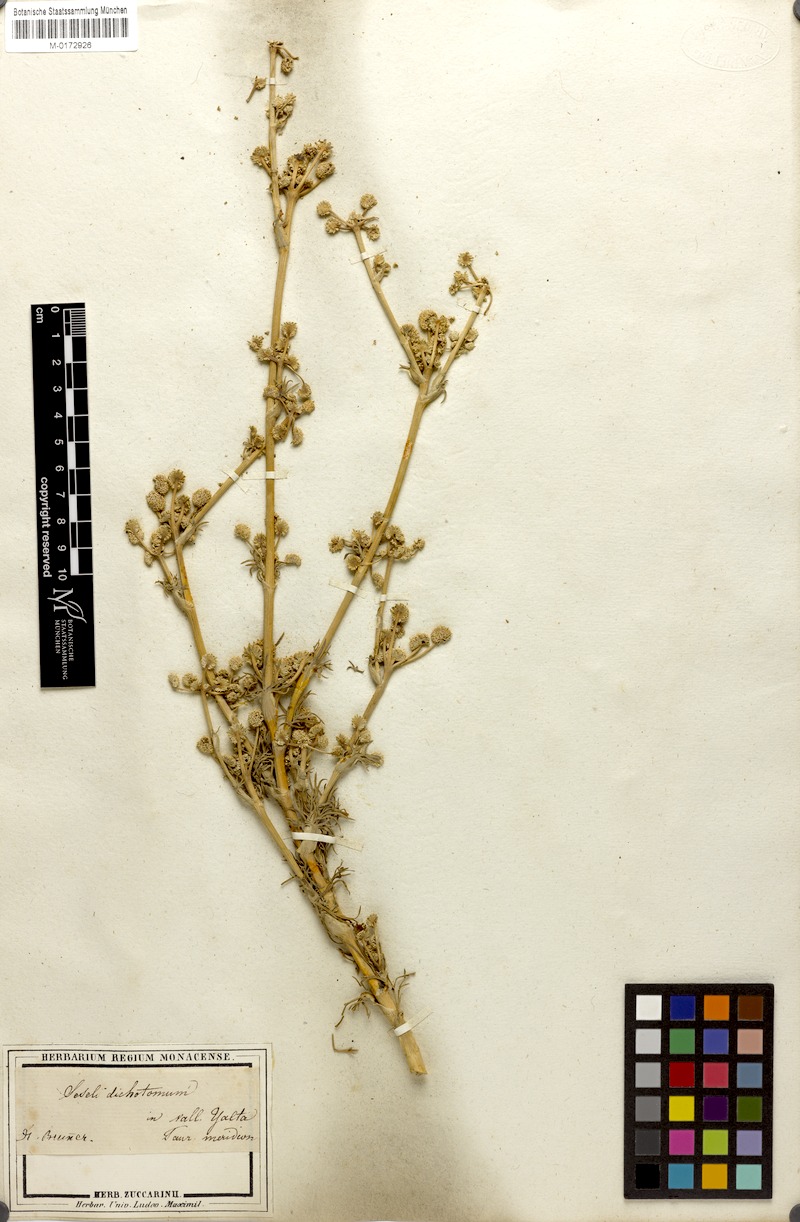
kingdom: Plantae
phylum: Tracheophyta
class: Magnoliopsida
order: Apiales
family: Apiaceae
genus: Hippomarathrum
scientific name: Hippomarathrum dichotomum
